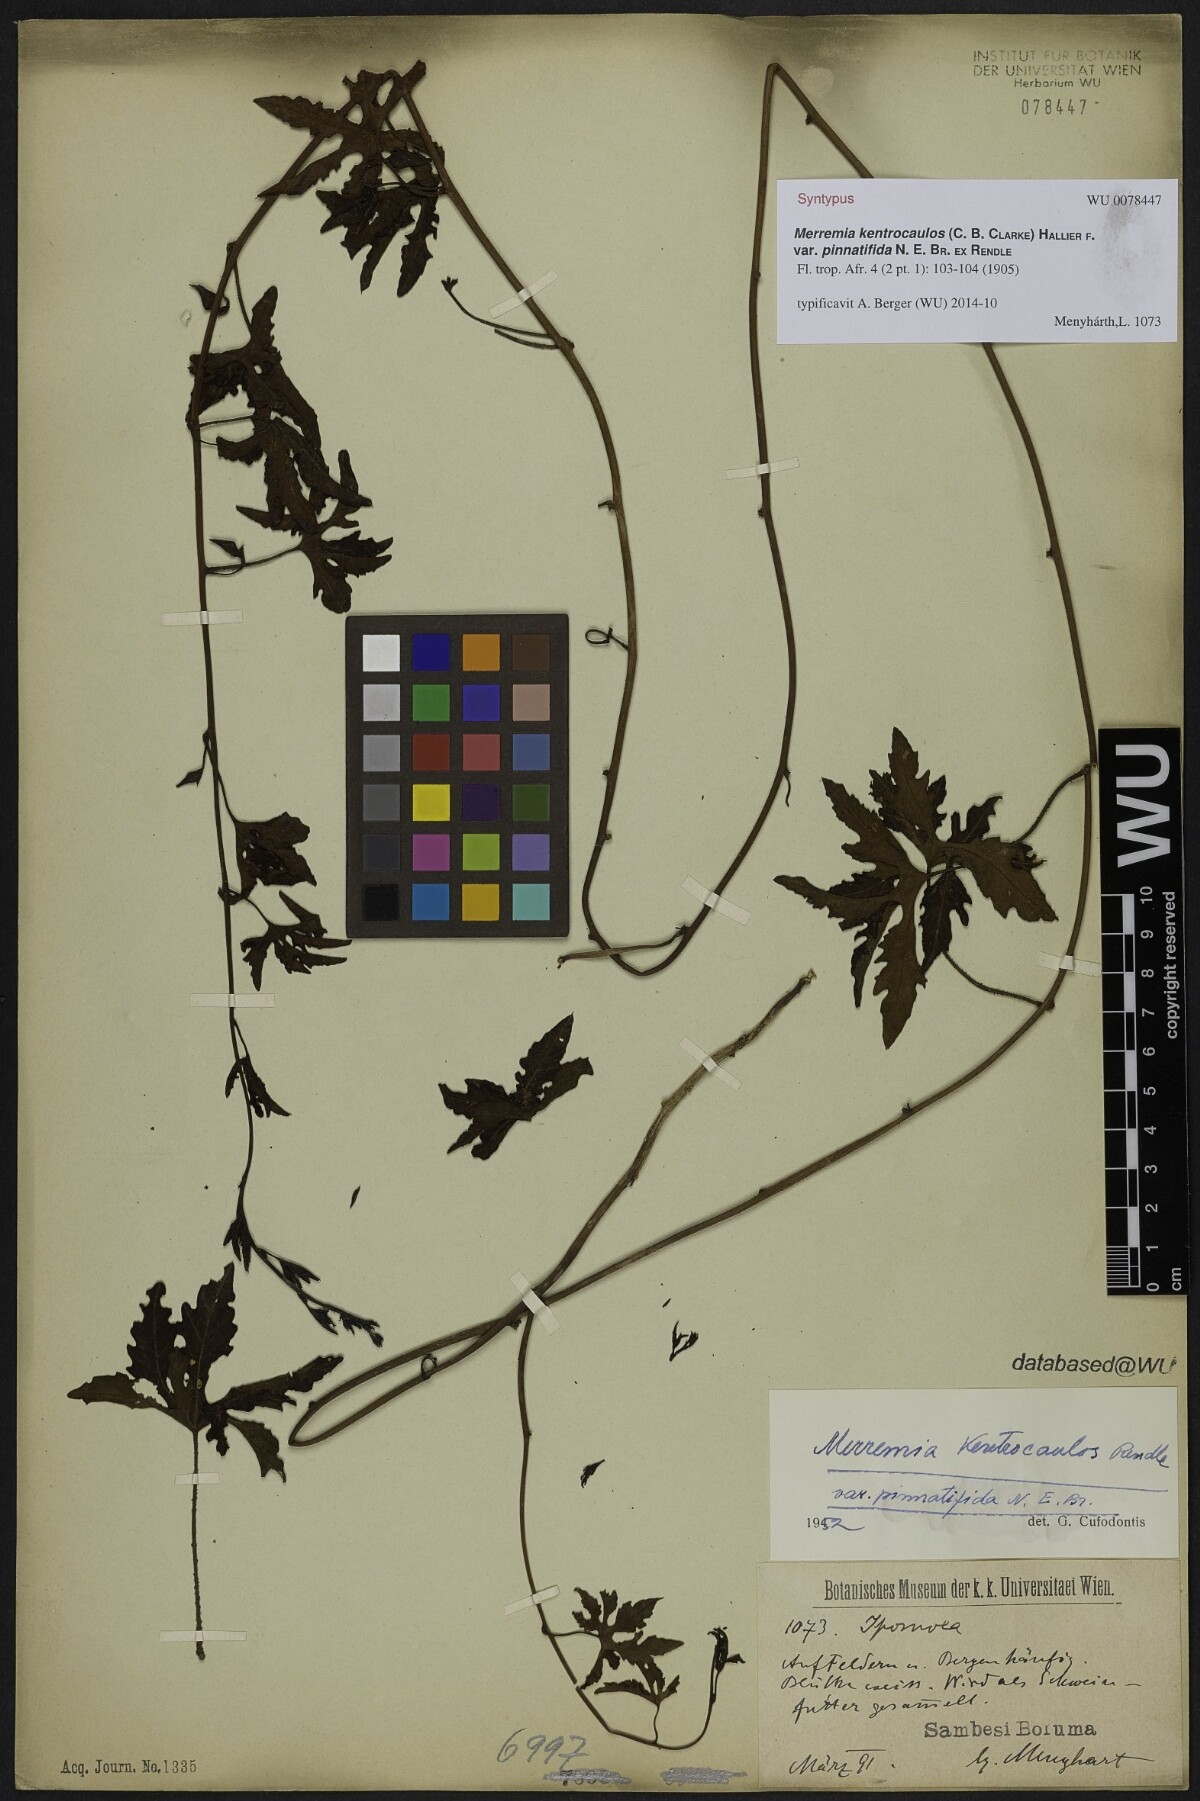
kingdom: Plantae
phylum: Tracheophyta
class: Magnoliopsida
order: Solanales
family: Convolvulaceae
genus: Distimake
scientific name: Distimake kentrocaulos
